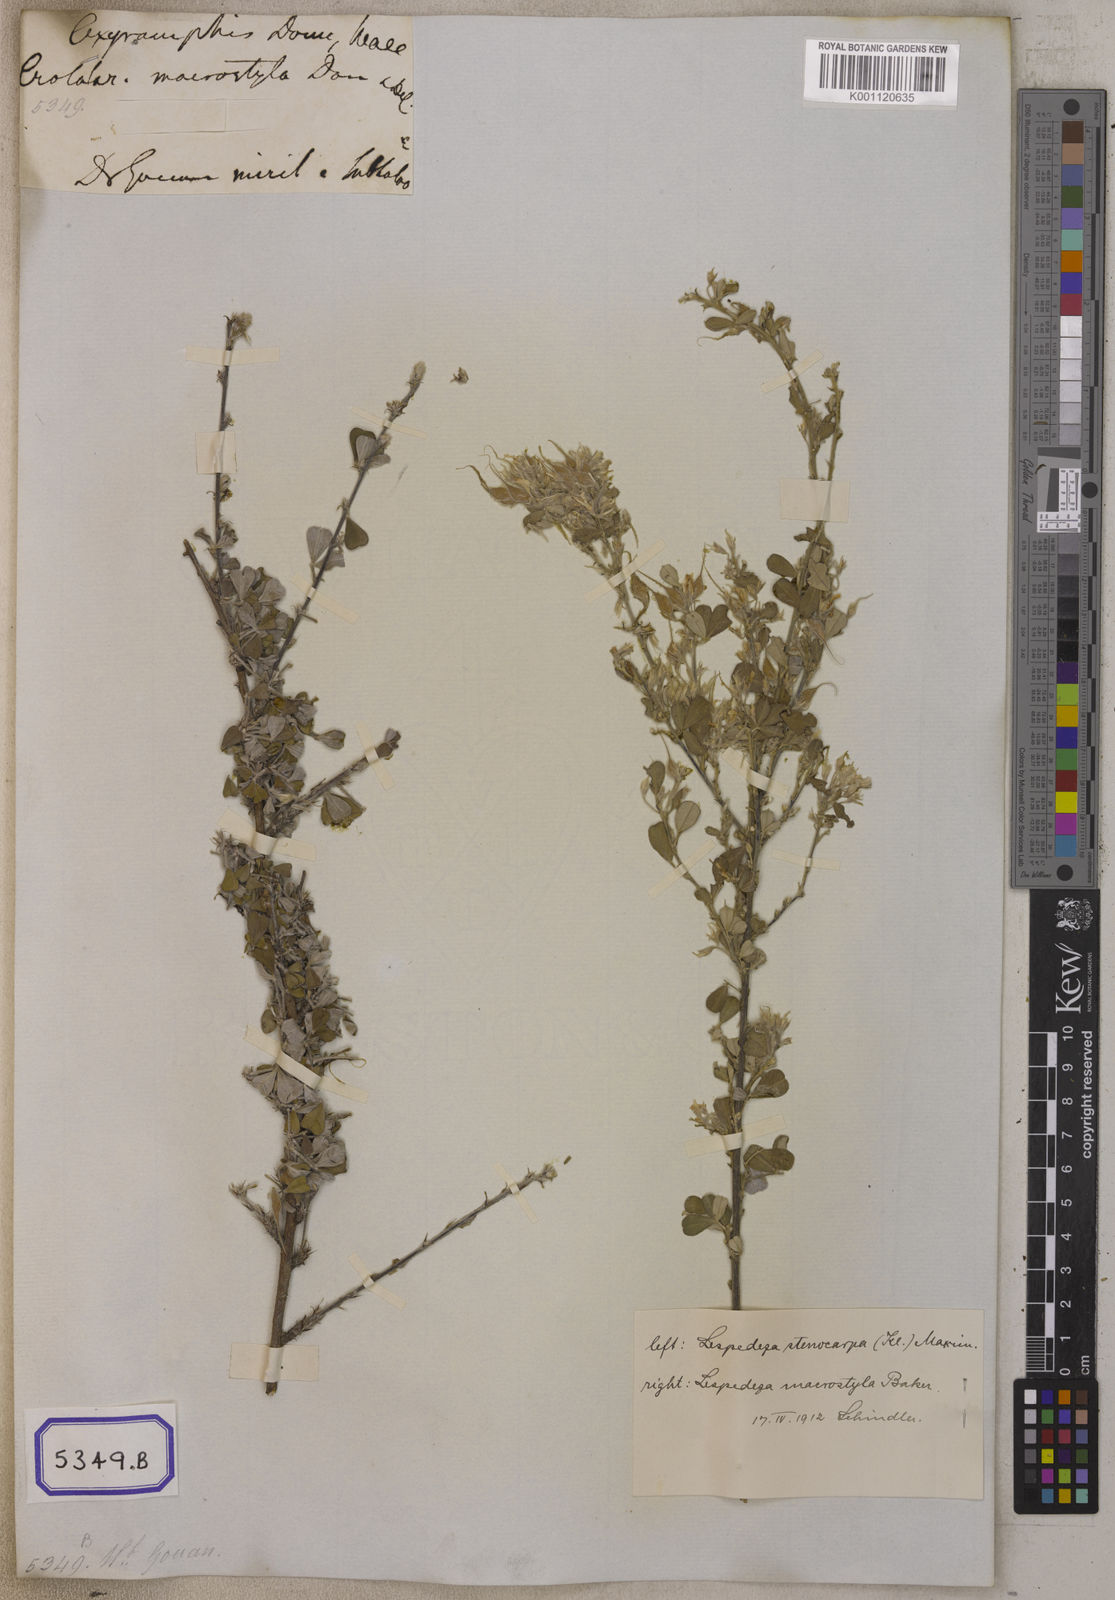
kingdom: Plantae
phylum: Tracheophyta
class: Magnoliopsida
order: Fabales
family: Fabaceae
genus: Campylotropis
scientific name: Campylotropis macrostyla
